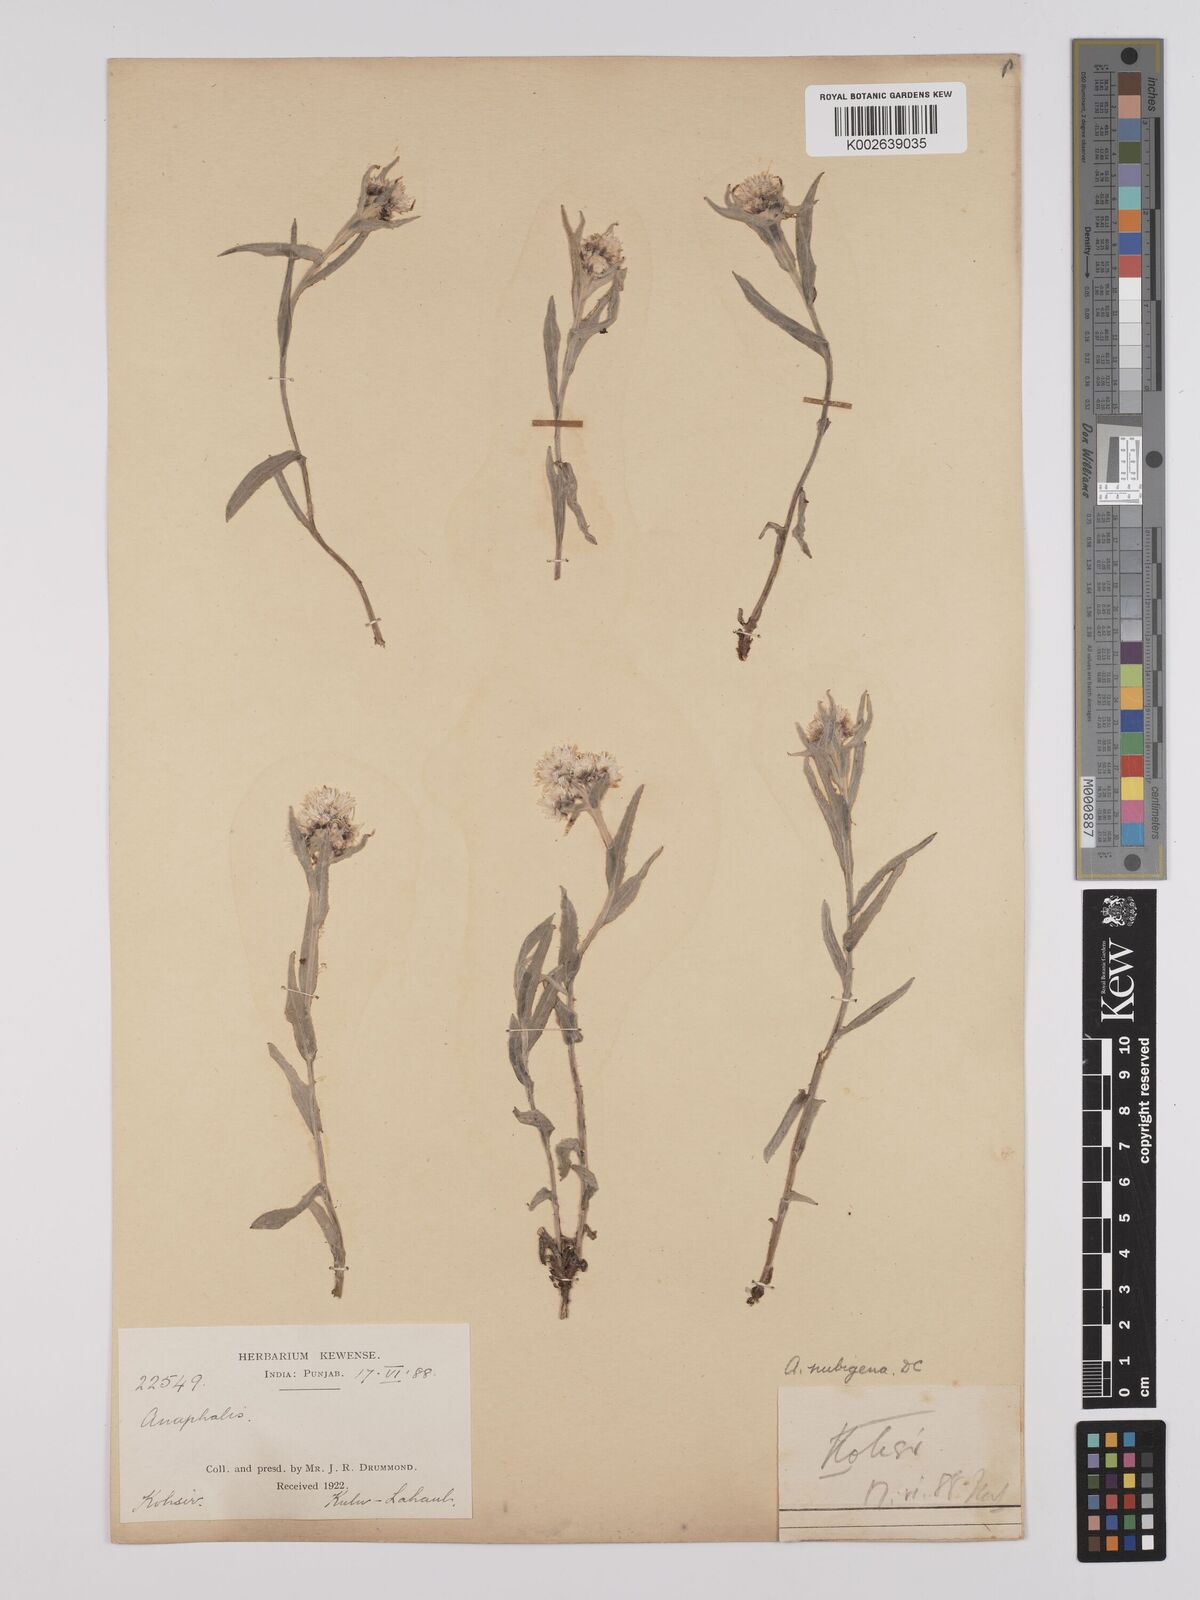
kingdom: Plantae
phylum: Tracheophyta
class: Magnoliopsida
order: Asterales
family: Asteraceae
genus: Anaphalis
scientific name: Anaphalis nepalensis
